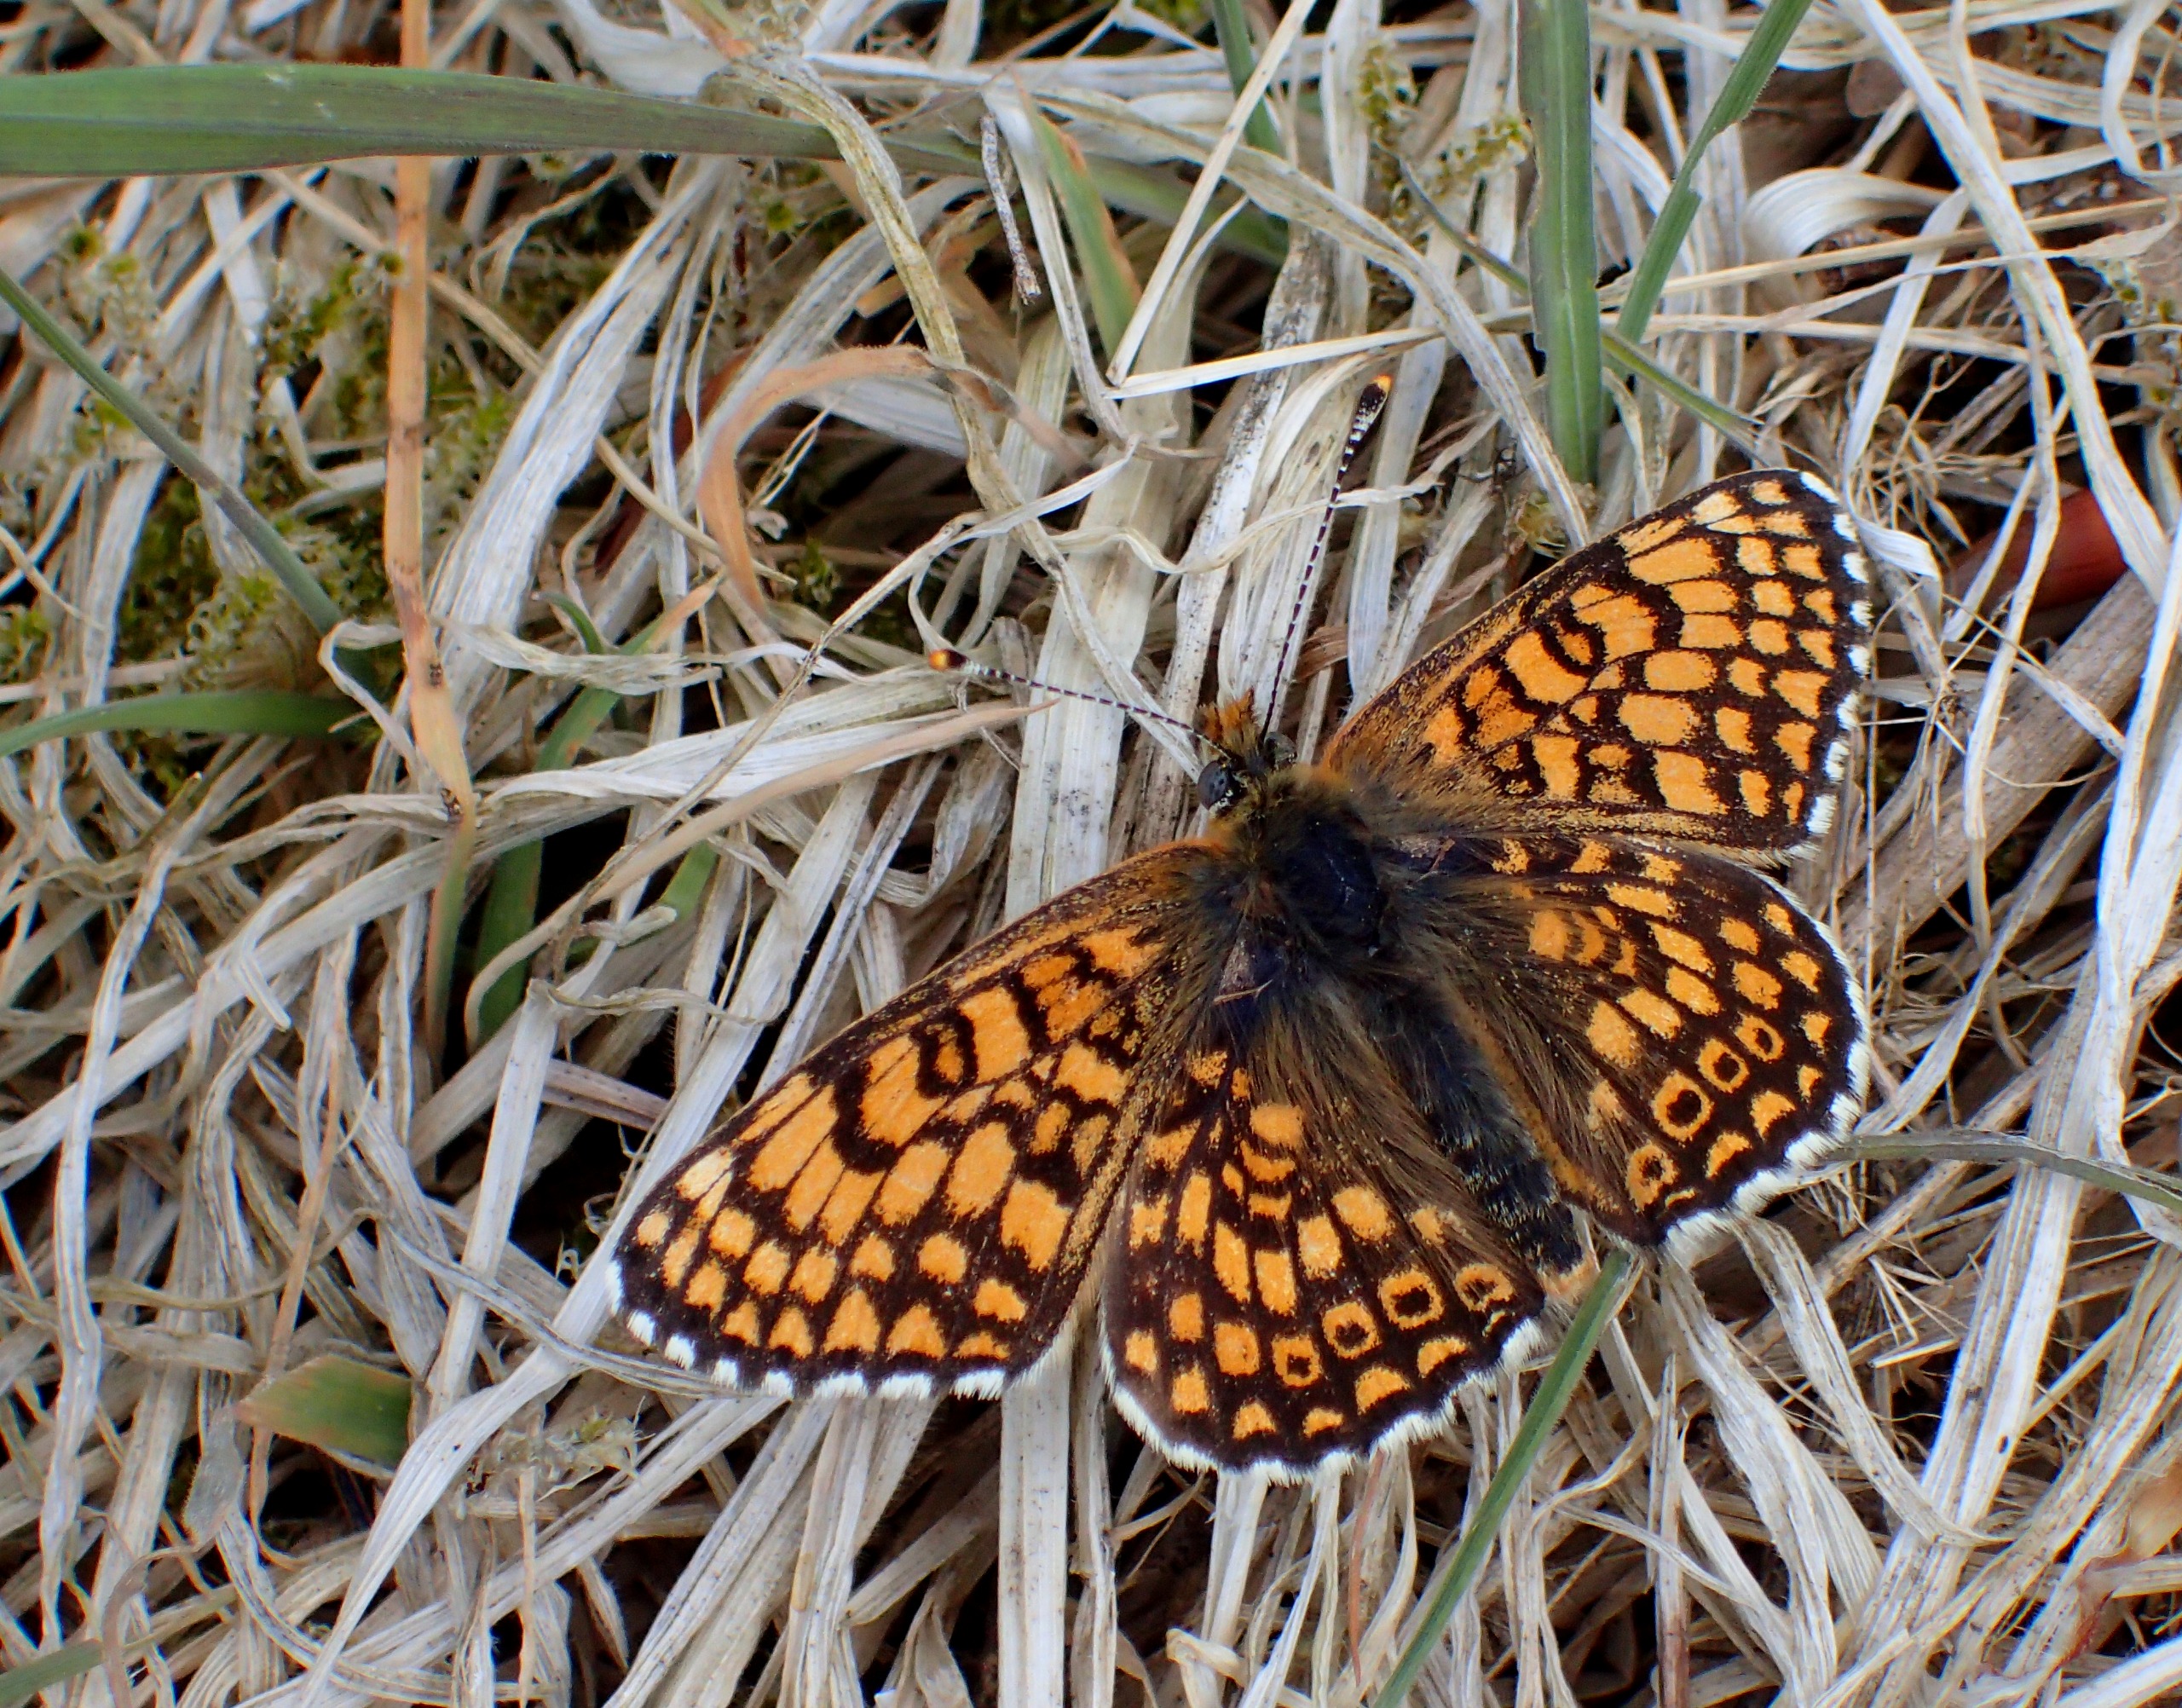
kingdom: Animalia
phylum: Arthropoda
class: Insecta
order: Lepidoptera
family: Nymphalidae
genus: Melitaea
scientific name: Melitaea cinxia
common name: Okkergul pletvinge
